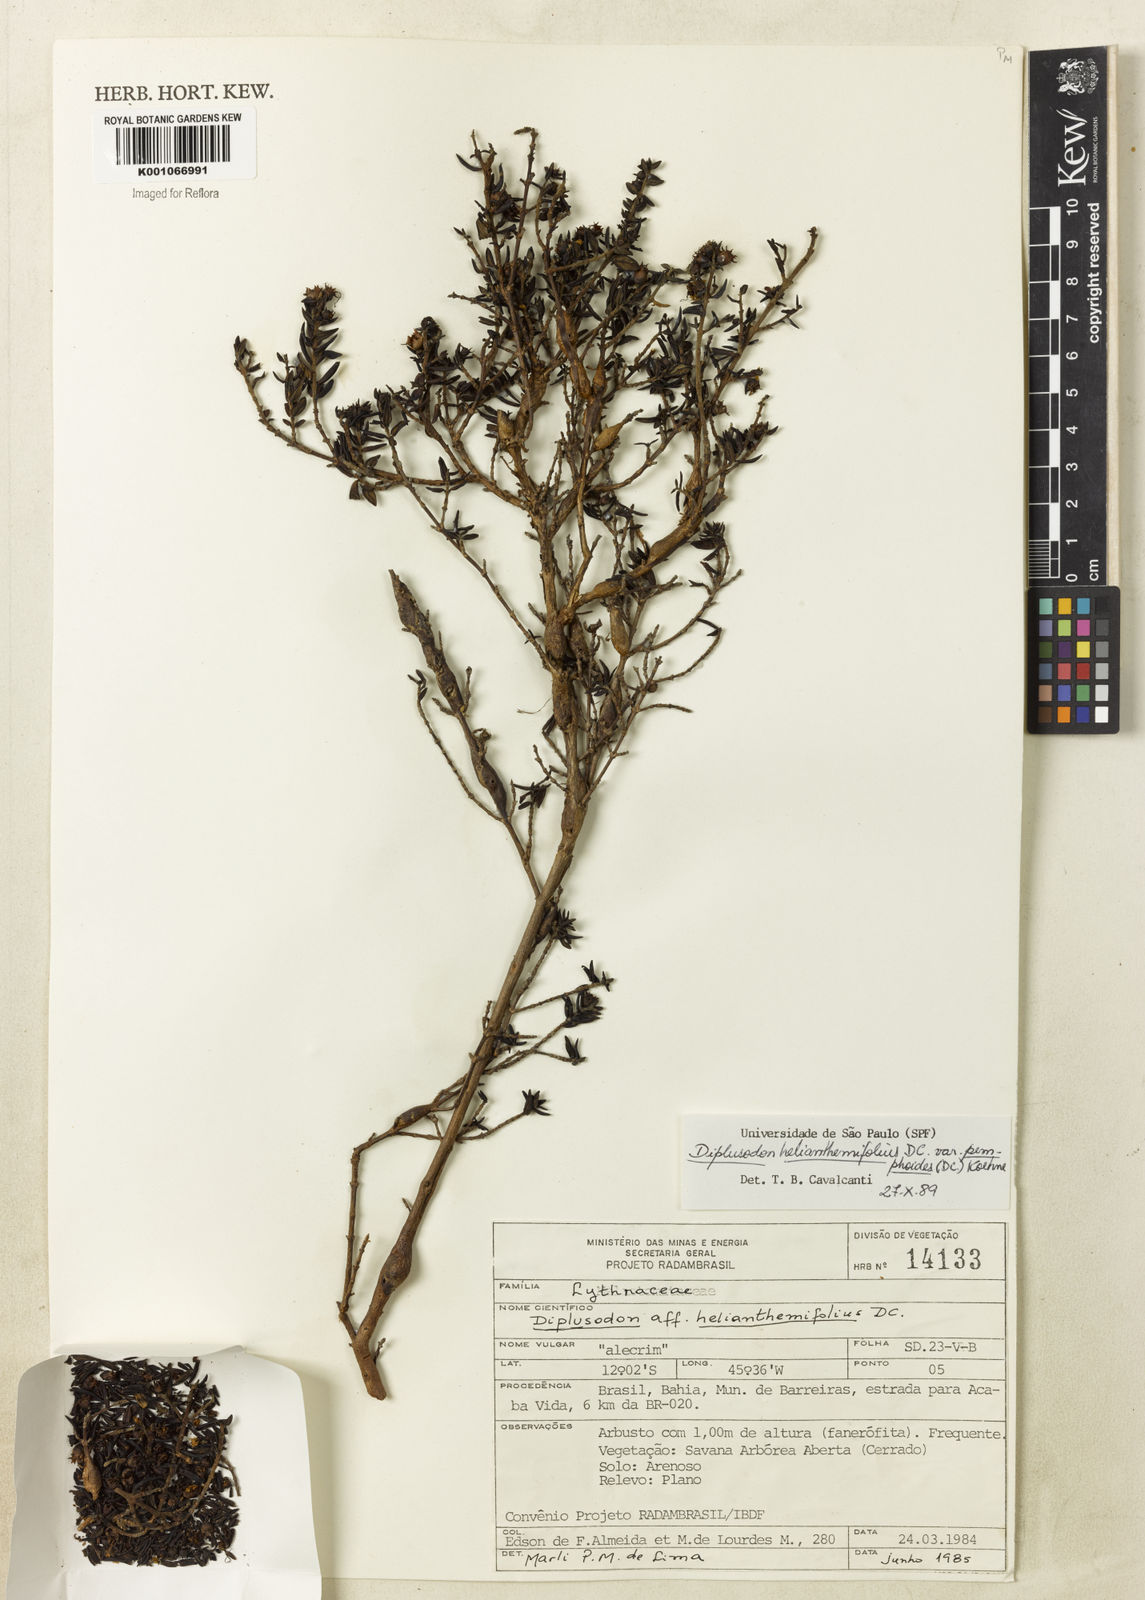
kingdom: Plantae
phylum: Tracheophyta
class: Magnoliopsida
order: Myrtales
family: Lythraceae
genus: Diplusodon
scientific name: Diplusodon helianthemifolius
